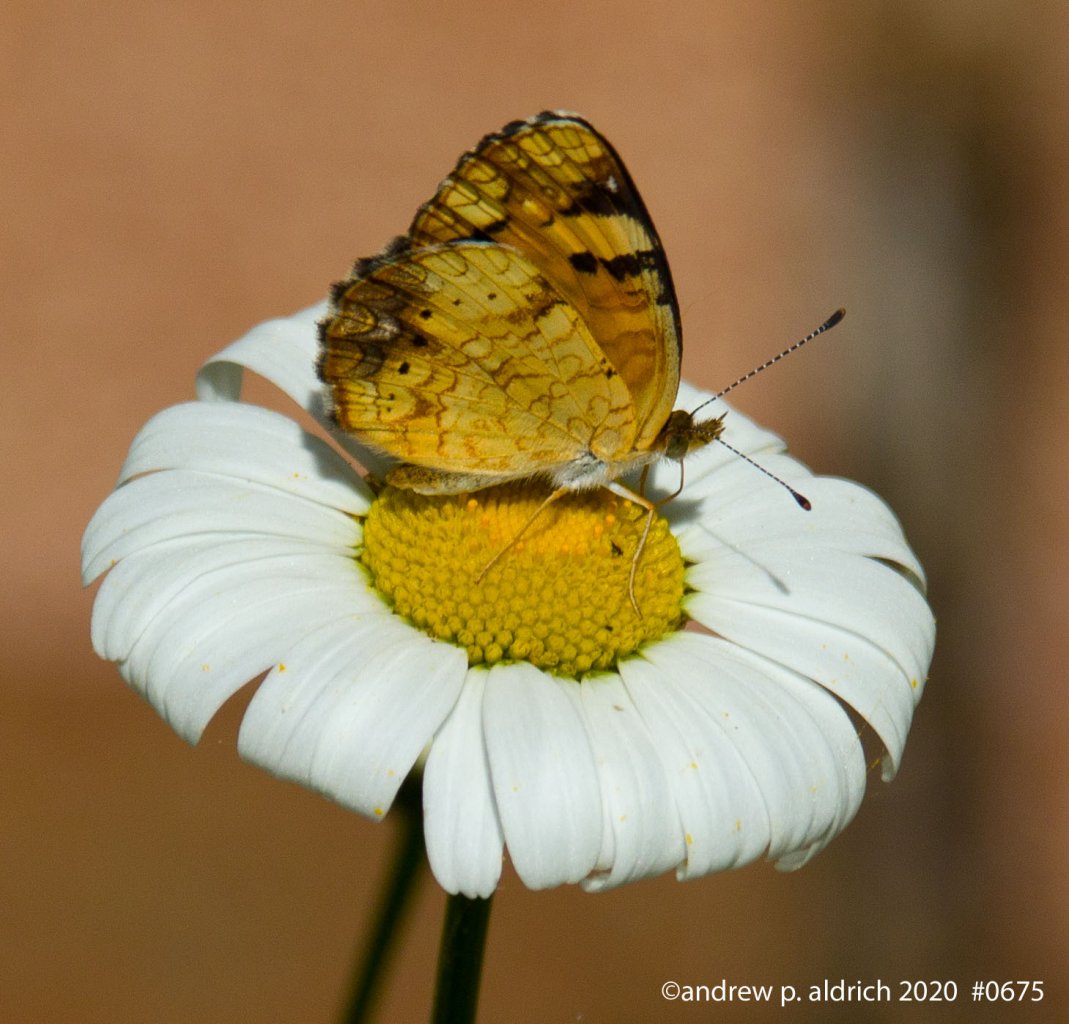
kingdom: Animalia
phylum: Arthropoda
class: Insecta
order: Lepidoptera
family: Nymphalidae
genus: Phyciodes
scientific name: Phyciodes
